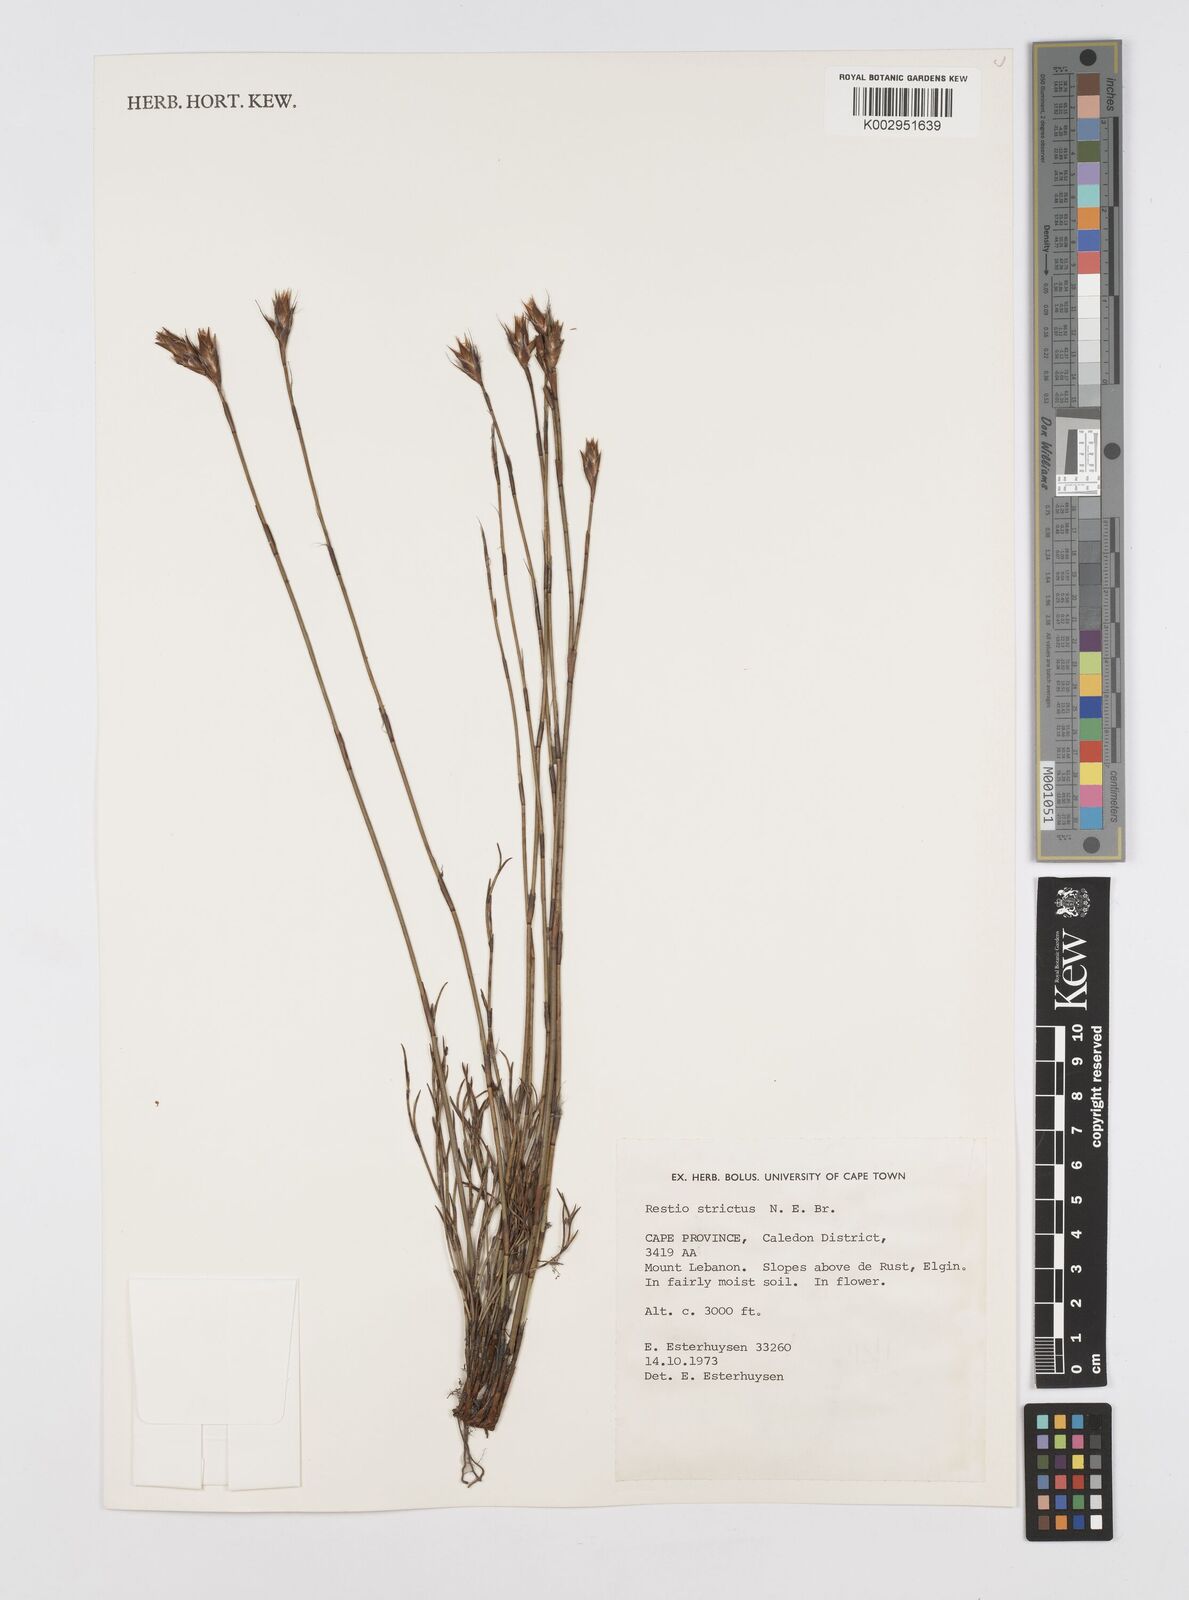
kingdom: Plantae
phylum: Tracheophyta
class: Liliopsida
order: Poales
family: Restionaceae
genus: Restio
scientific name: Restio strictus
